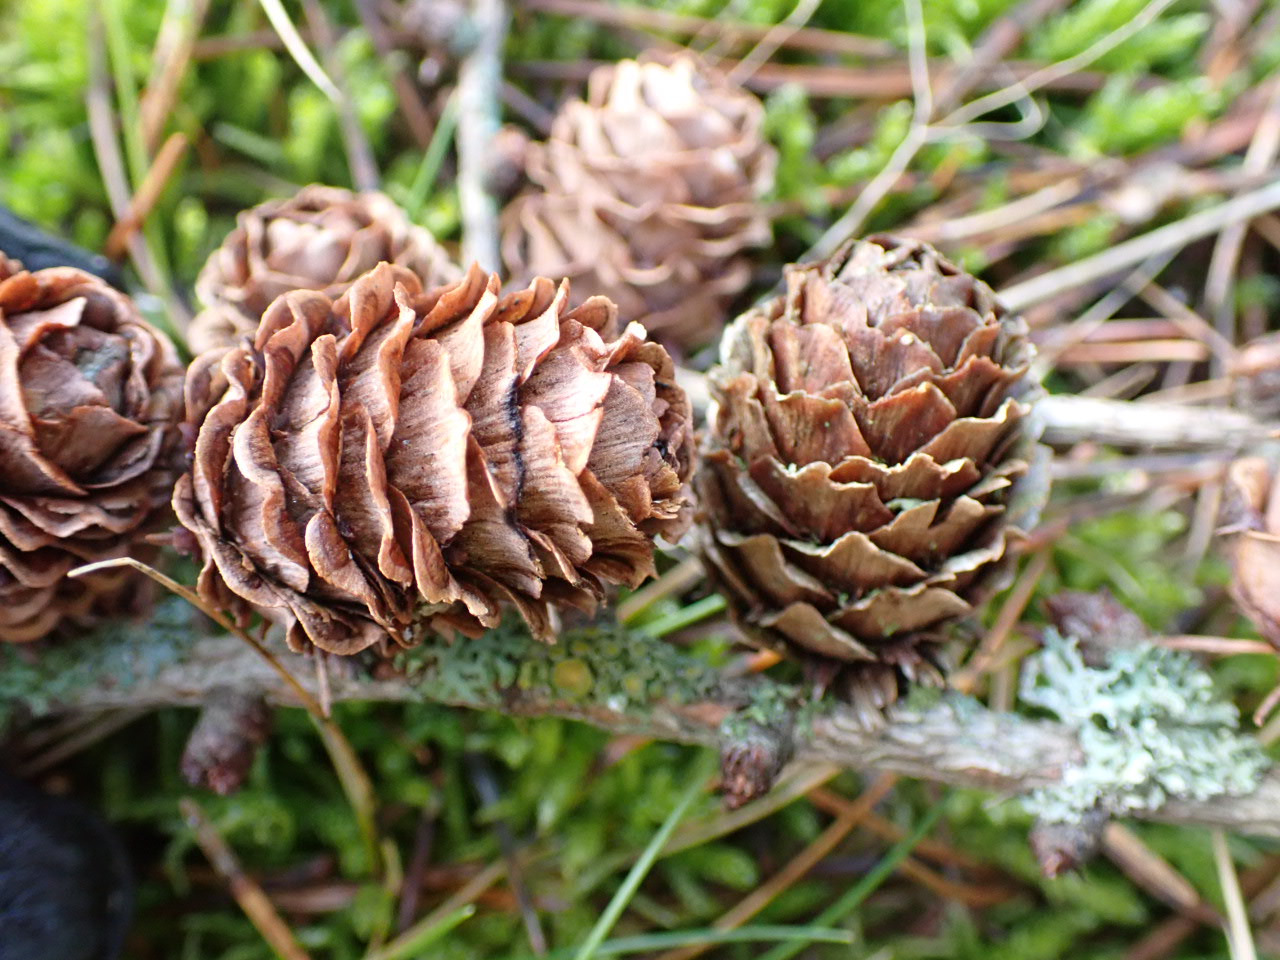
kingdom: Plantae
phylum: Tracheophyta
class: Pinopsida
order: Pinales
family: Pinaceae
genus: Larix
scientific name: Larix marschlinsii
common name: Hybrid-lærk
